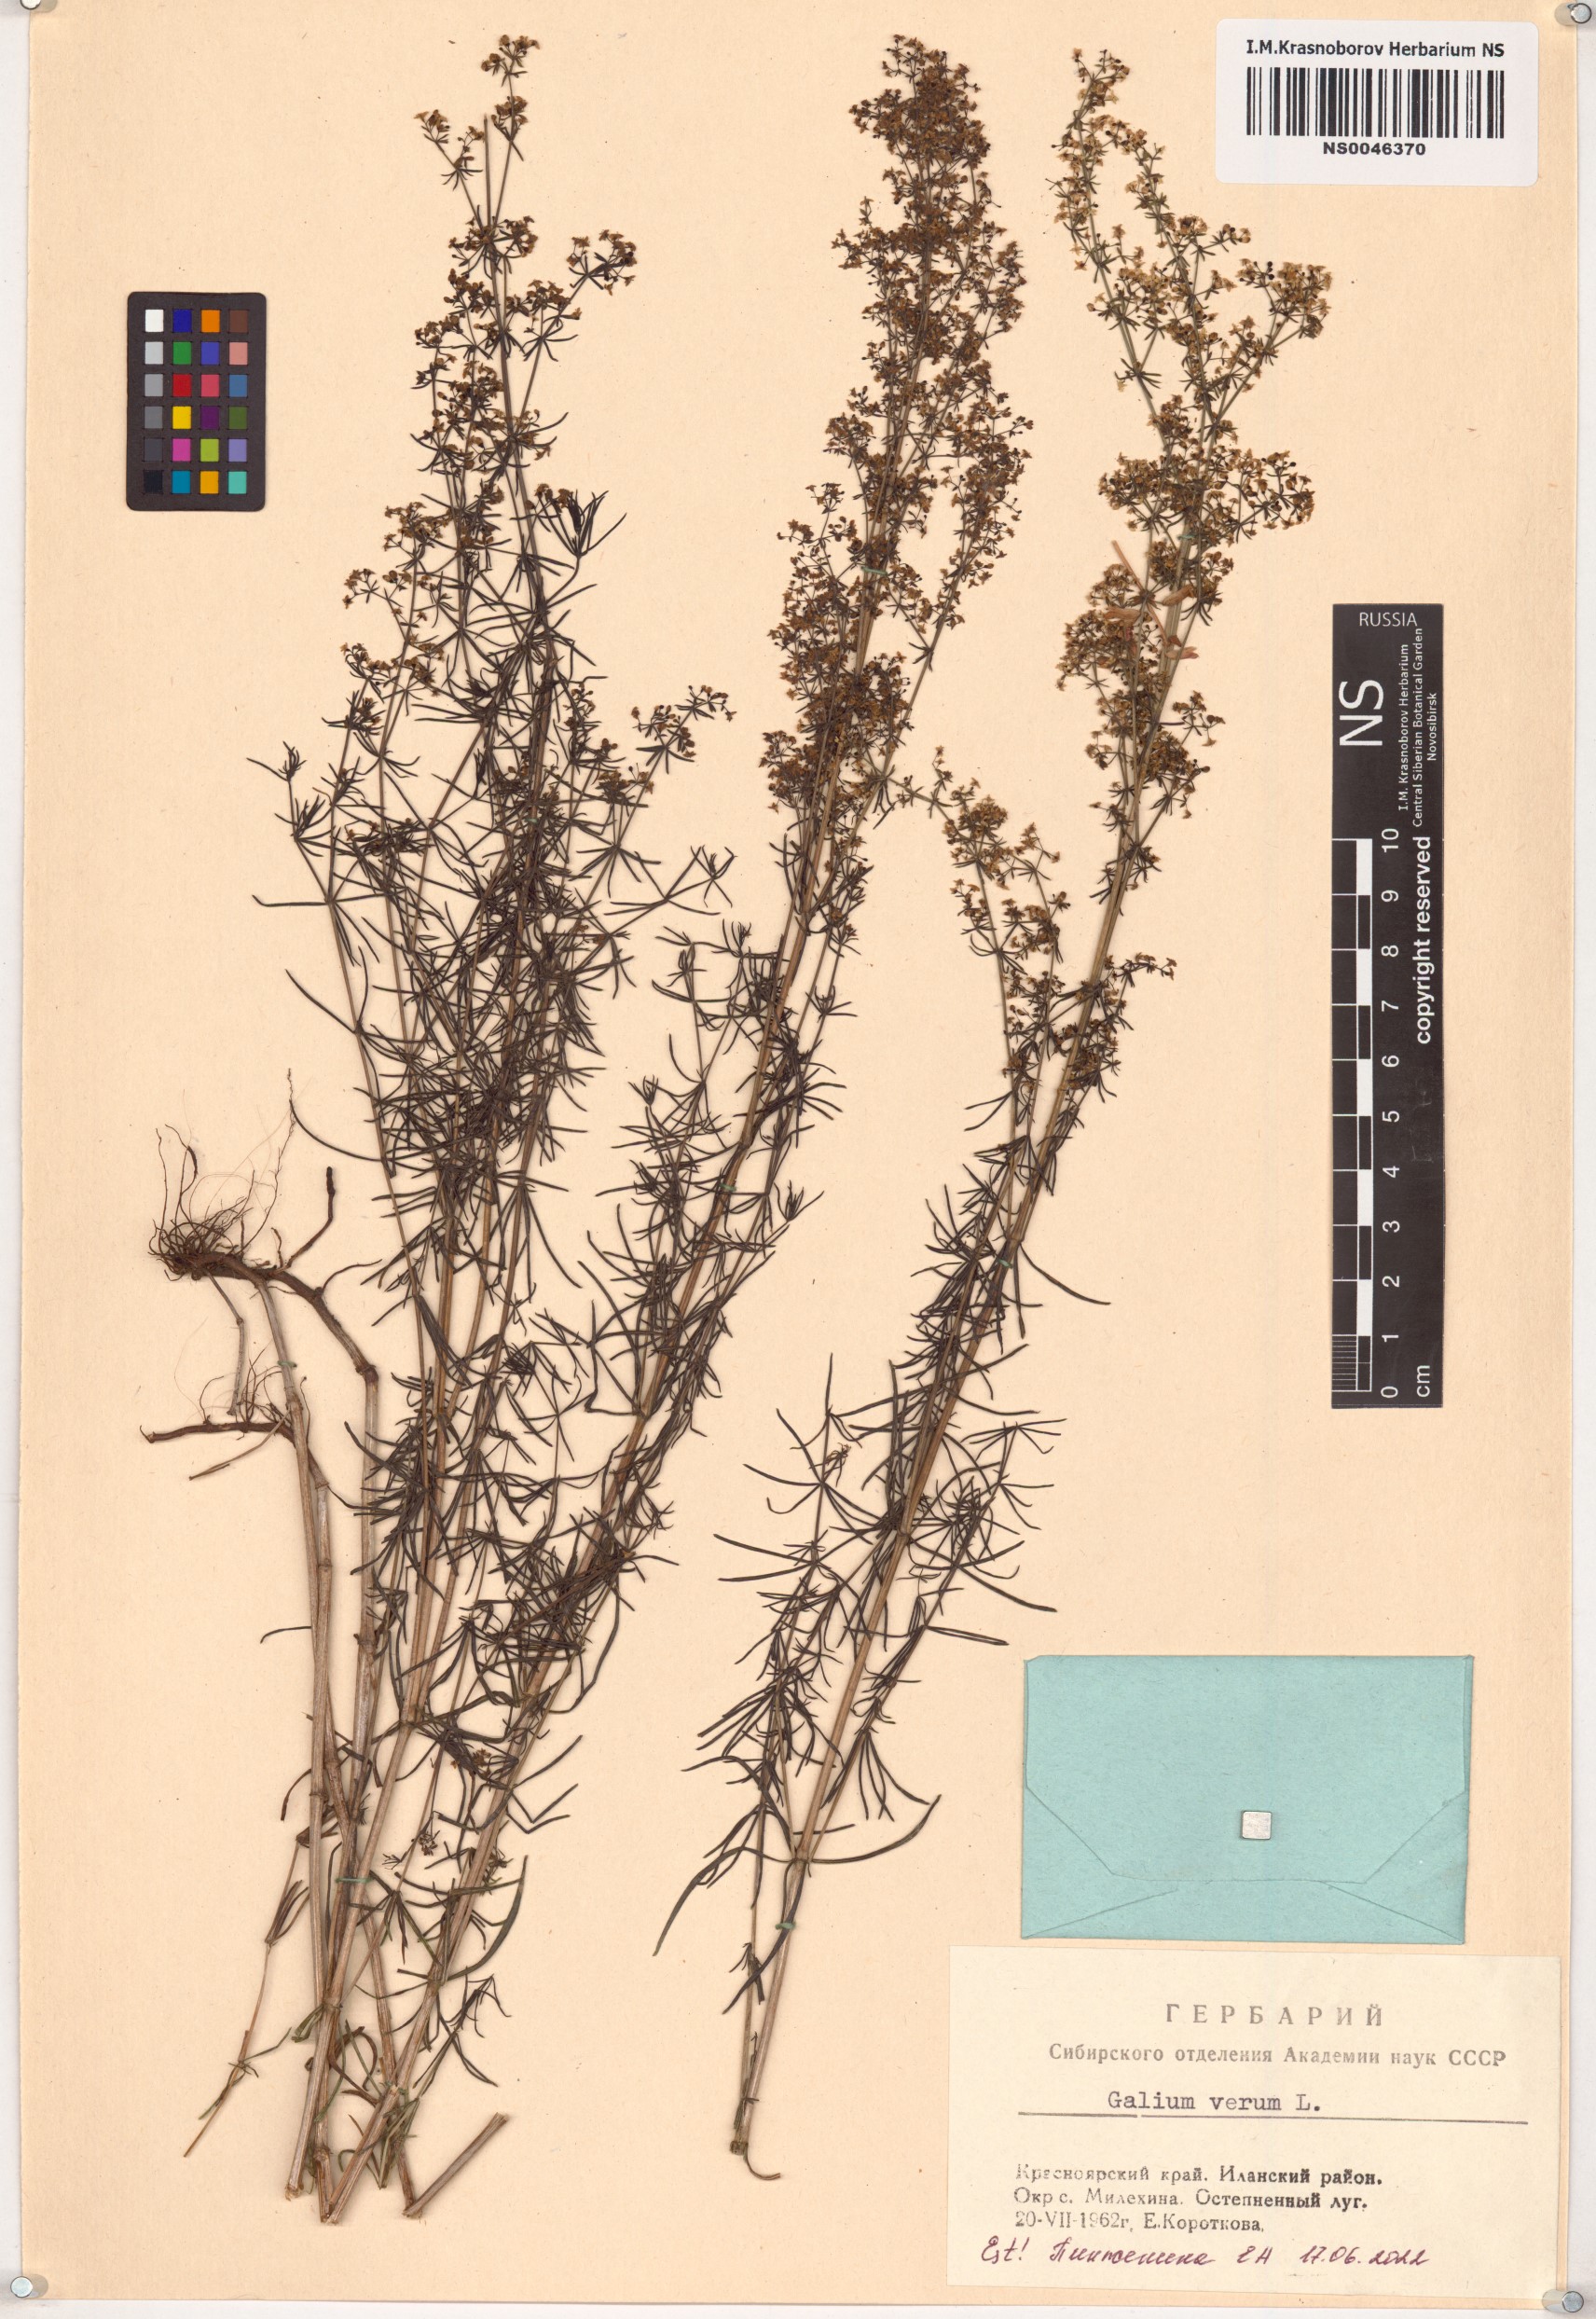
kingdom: Plantae
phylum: Tracheophyta
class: Magnoliopsida
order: Gentianales
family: Rubiaceae
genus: Galium
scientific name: Galium verum
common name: Lady's bedstraw
